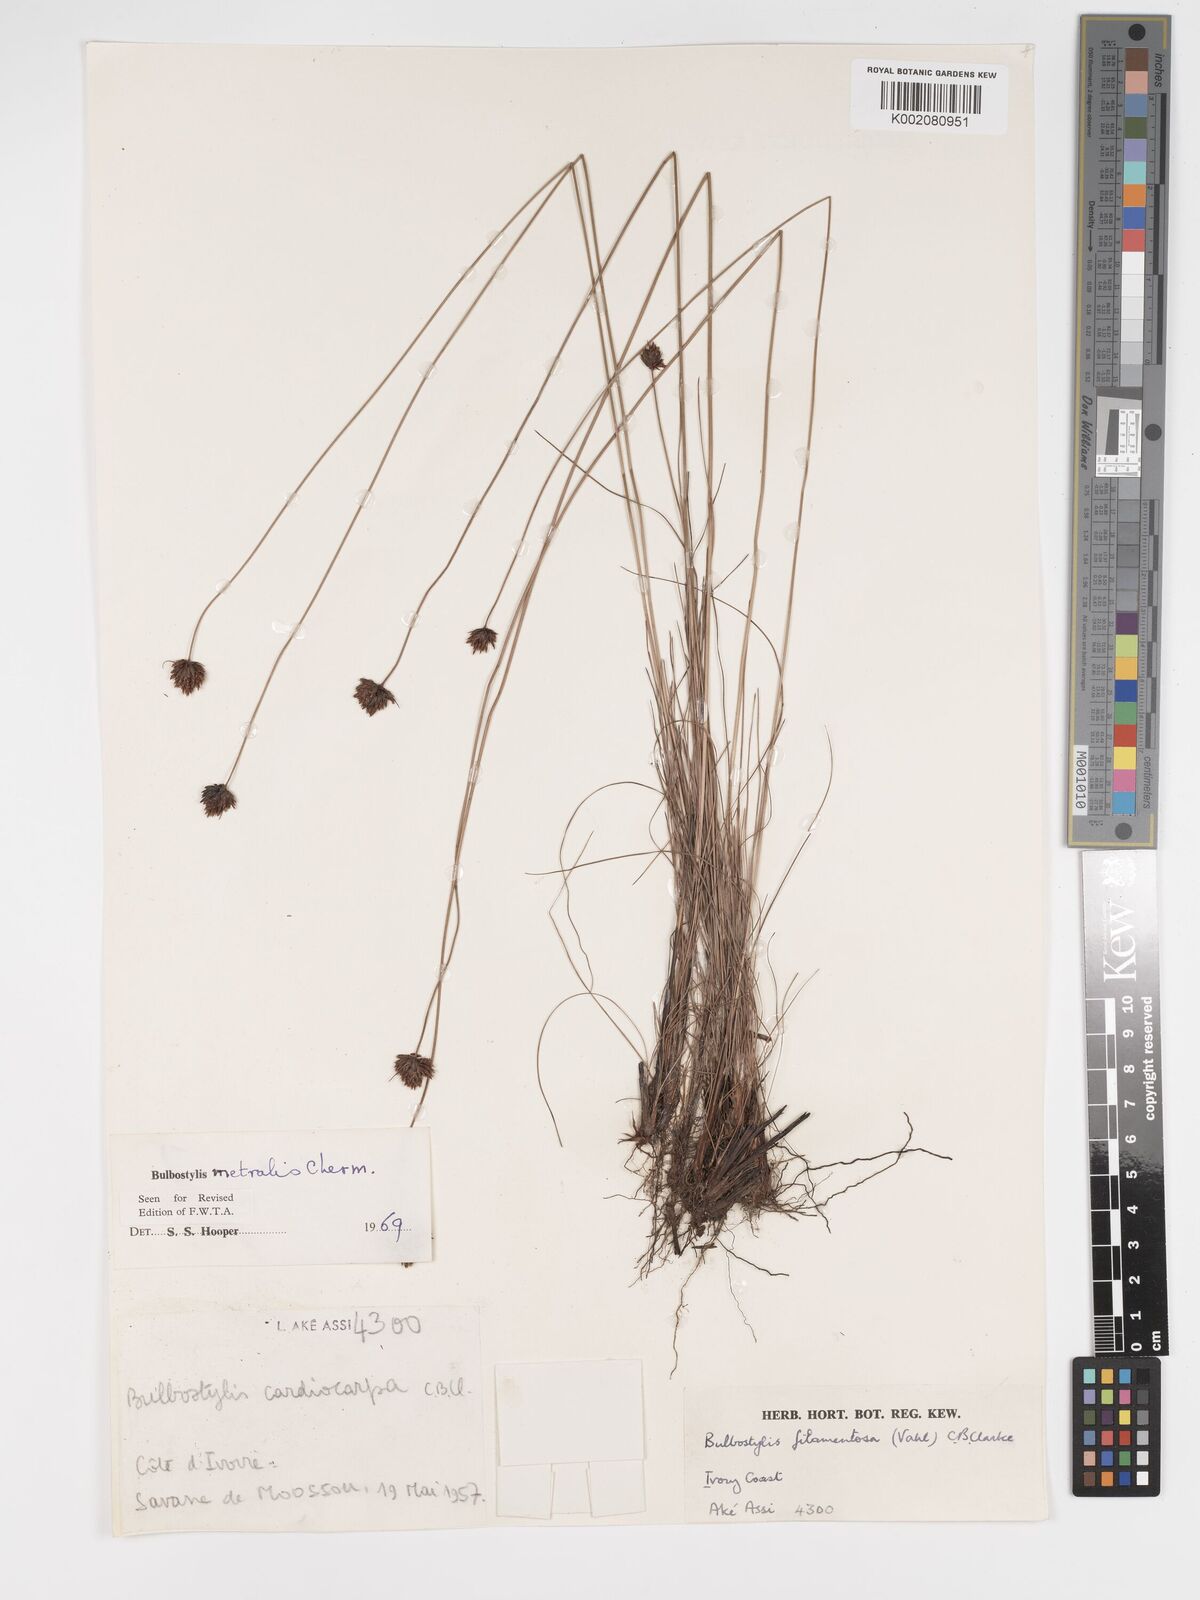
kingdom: Plantae
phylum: Tracheophyta
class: Liliopsida
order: Poales
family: Cyperaceae
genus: Bulbostylis
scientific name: Bulbostylis filamentosa
